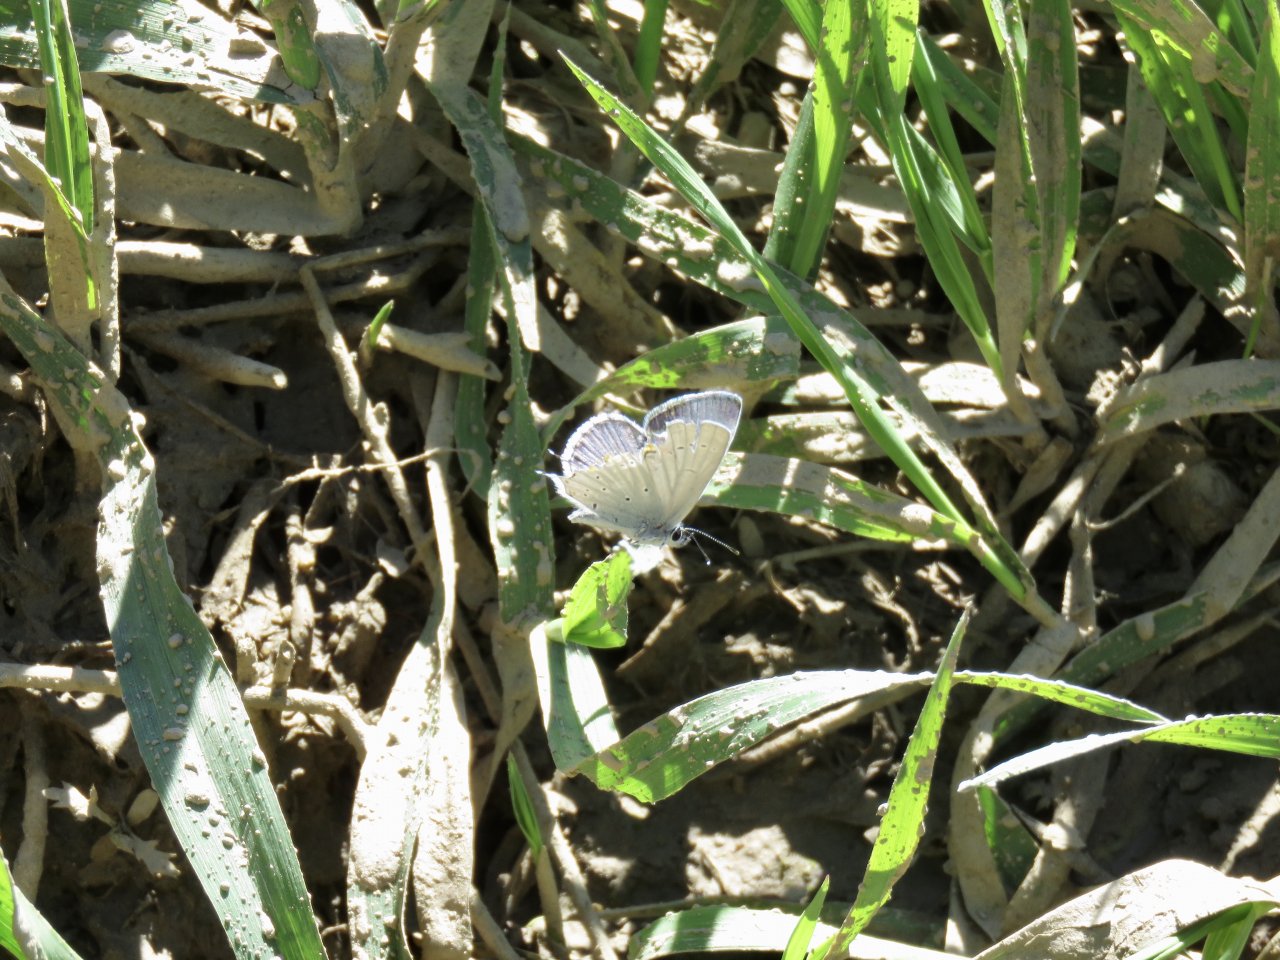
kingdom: Animalia
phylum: Arthropoda
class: Insecta
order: Lepidoptera
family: Lycaenidae
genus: Elkalyce
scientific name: Elkalyce amyntula
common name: Western Tailed-Blue
